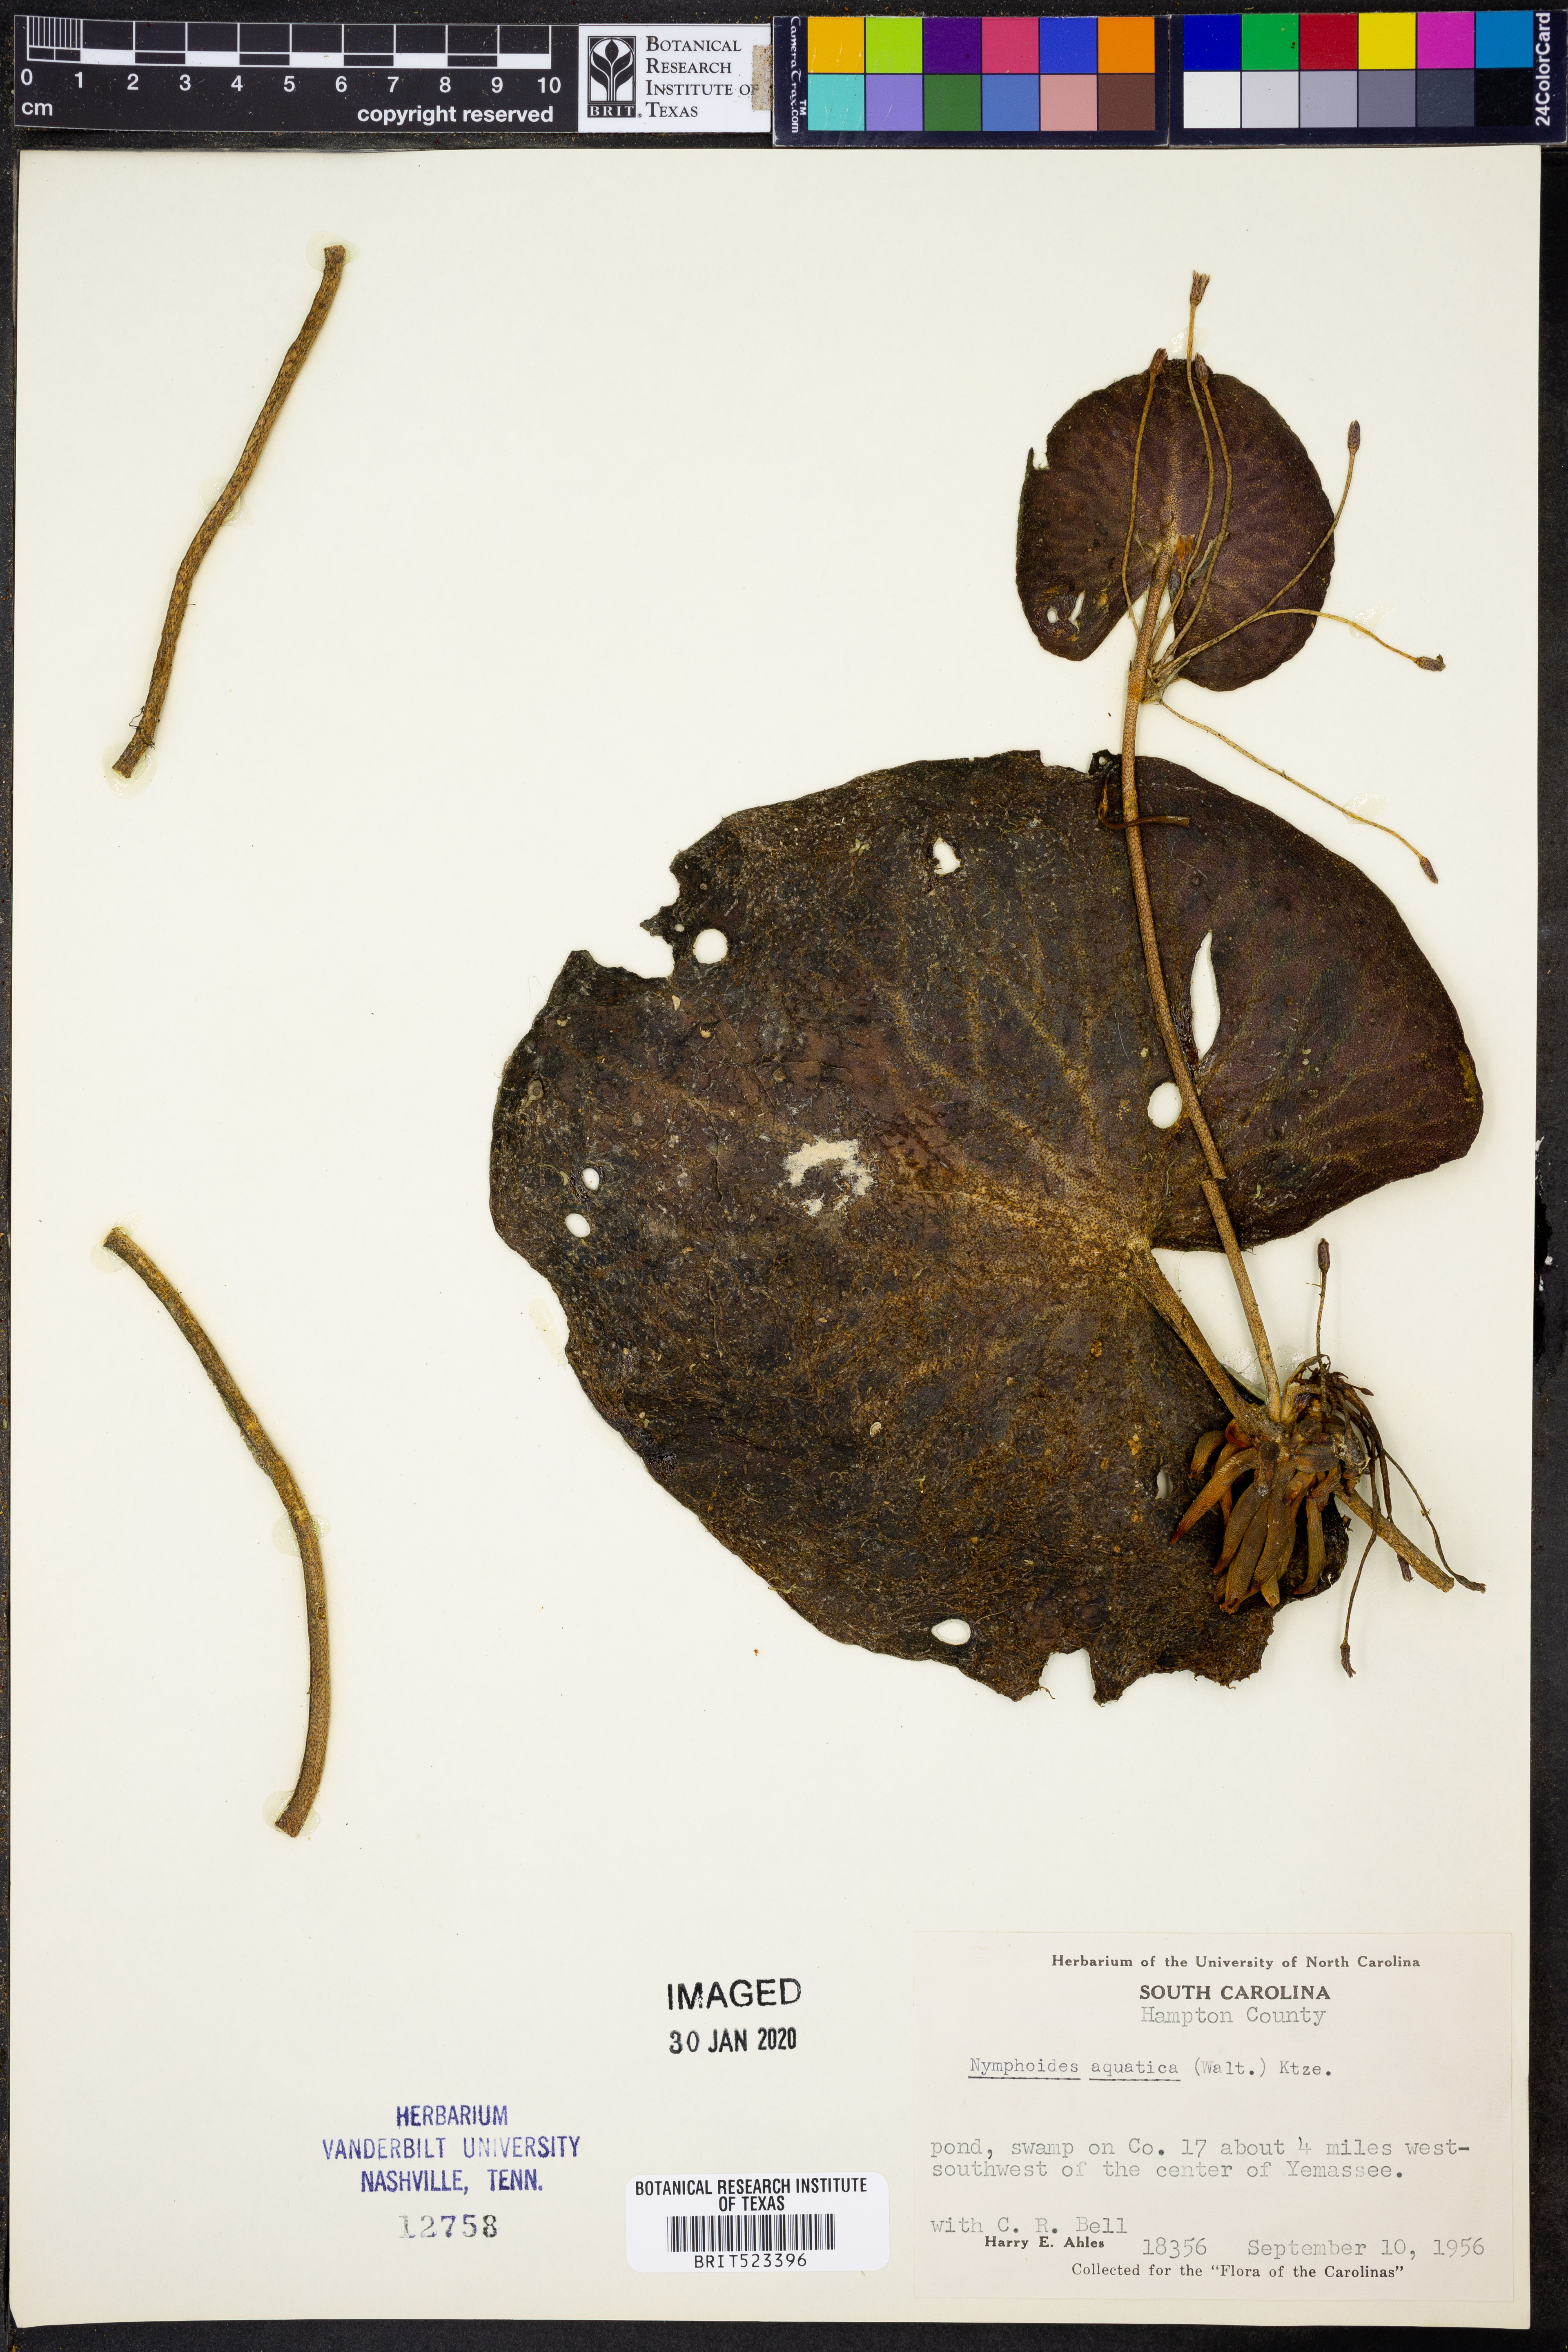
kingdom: Plantae
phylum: Tracheophyta
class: Magnoliopsida
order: Asterales
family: Menyanthaceae
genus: Nymphoides
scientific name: Nymphoides aquatica
